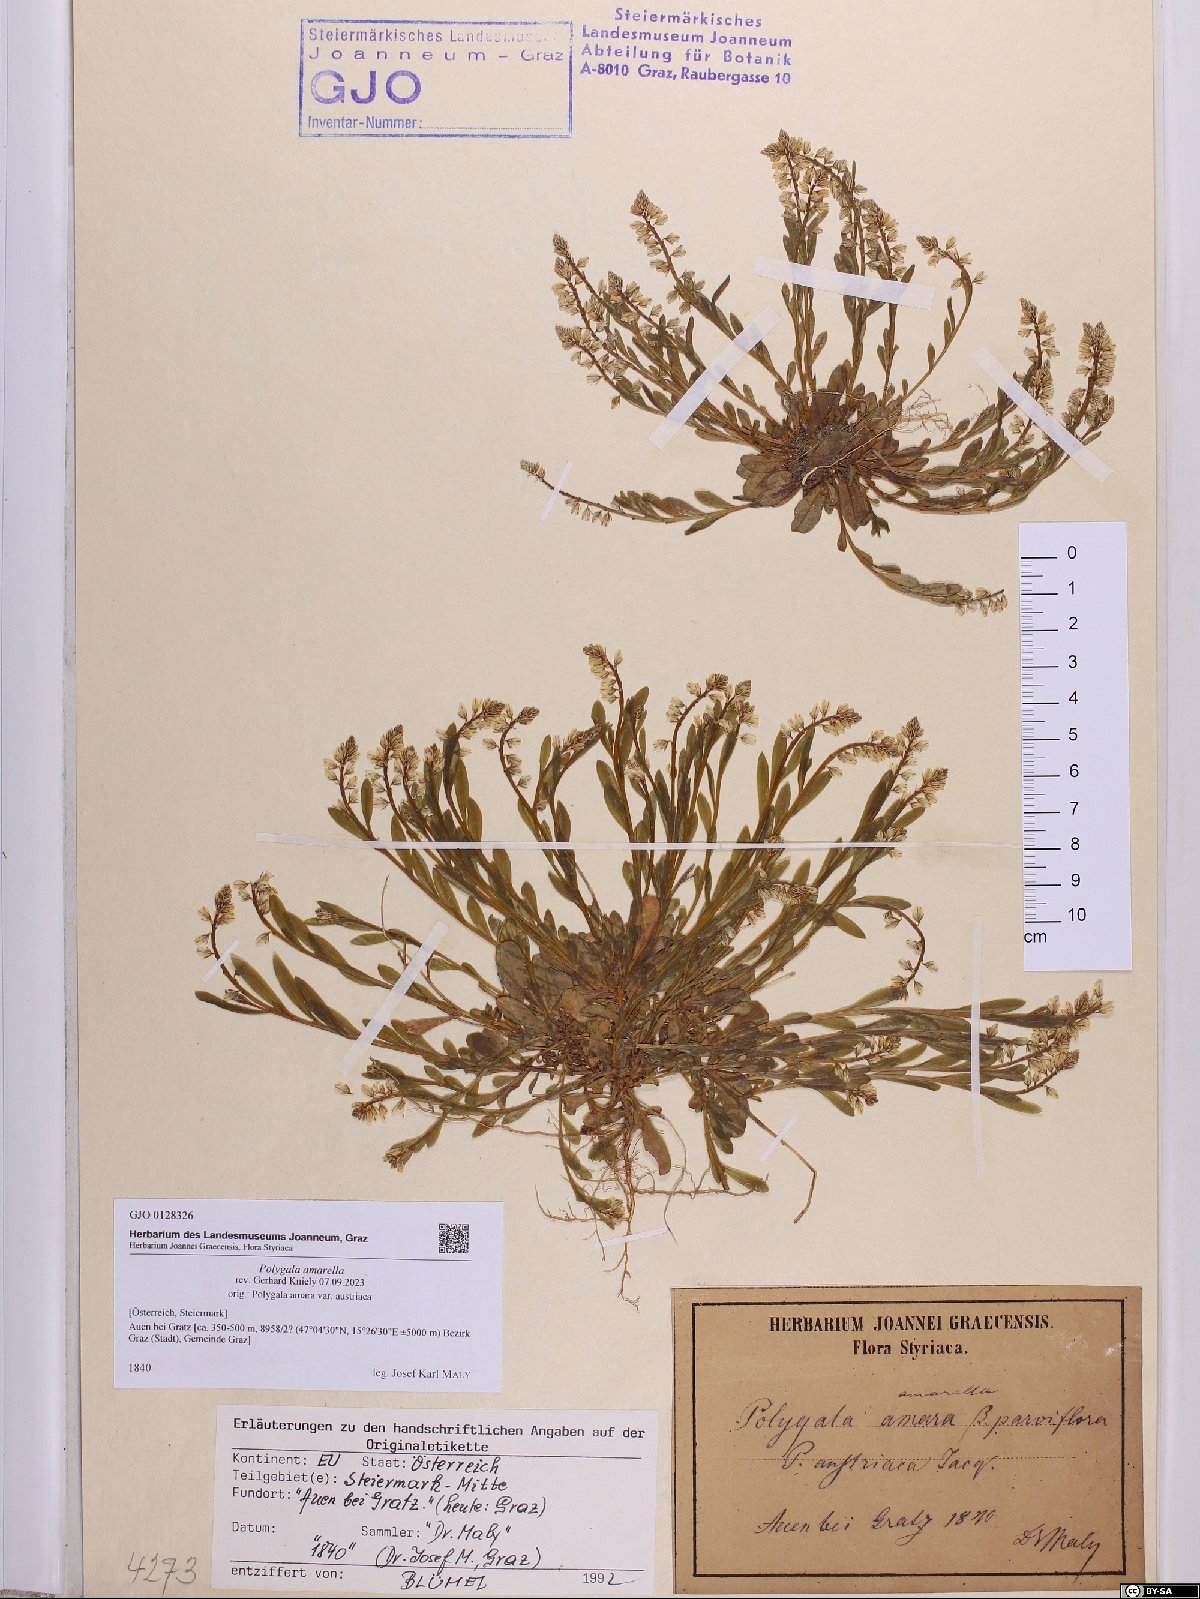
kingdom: Plantae
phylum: Tracheophyta
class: Magnoliopsida
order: Fabales
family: Polygalaceae
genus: Polygala
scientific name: Polygala amarella
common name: Dwarf milkwort
